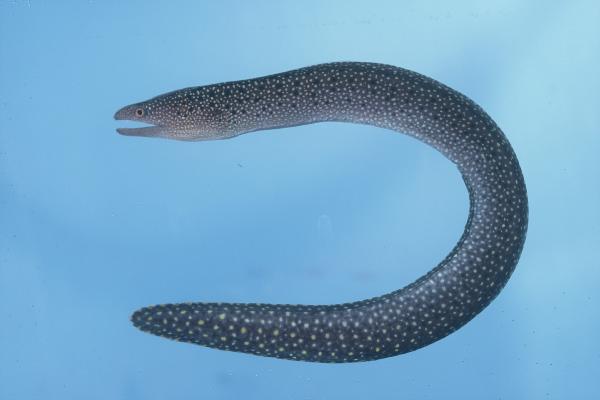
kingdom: Animalia
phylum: Chordata
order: Anguilliformes
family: Muraenidae
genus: Gymnothorax
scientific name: Gymnothorax eurostus
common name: Stout moray
